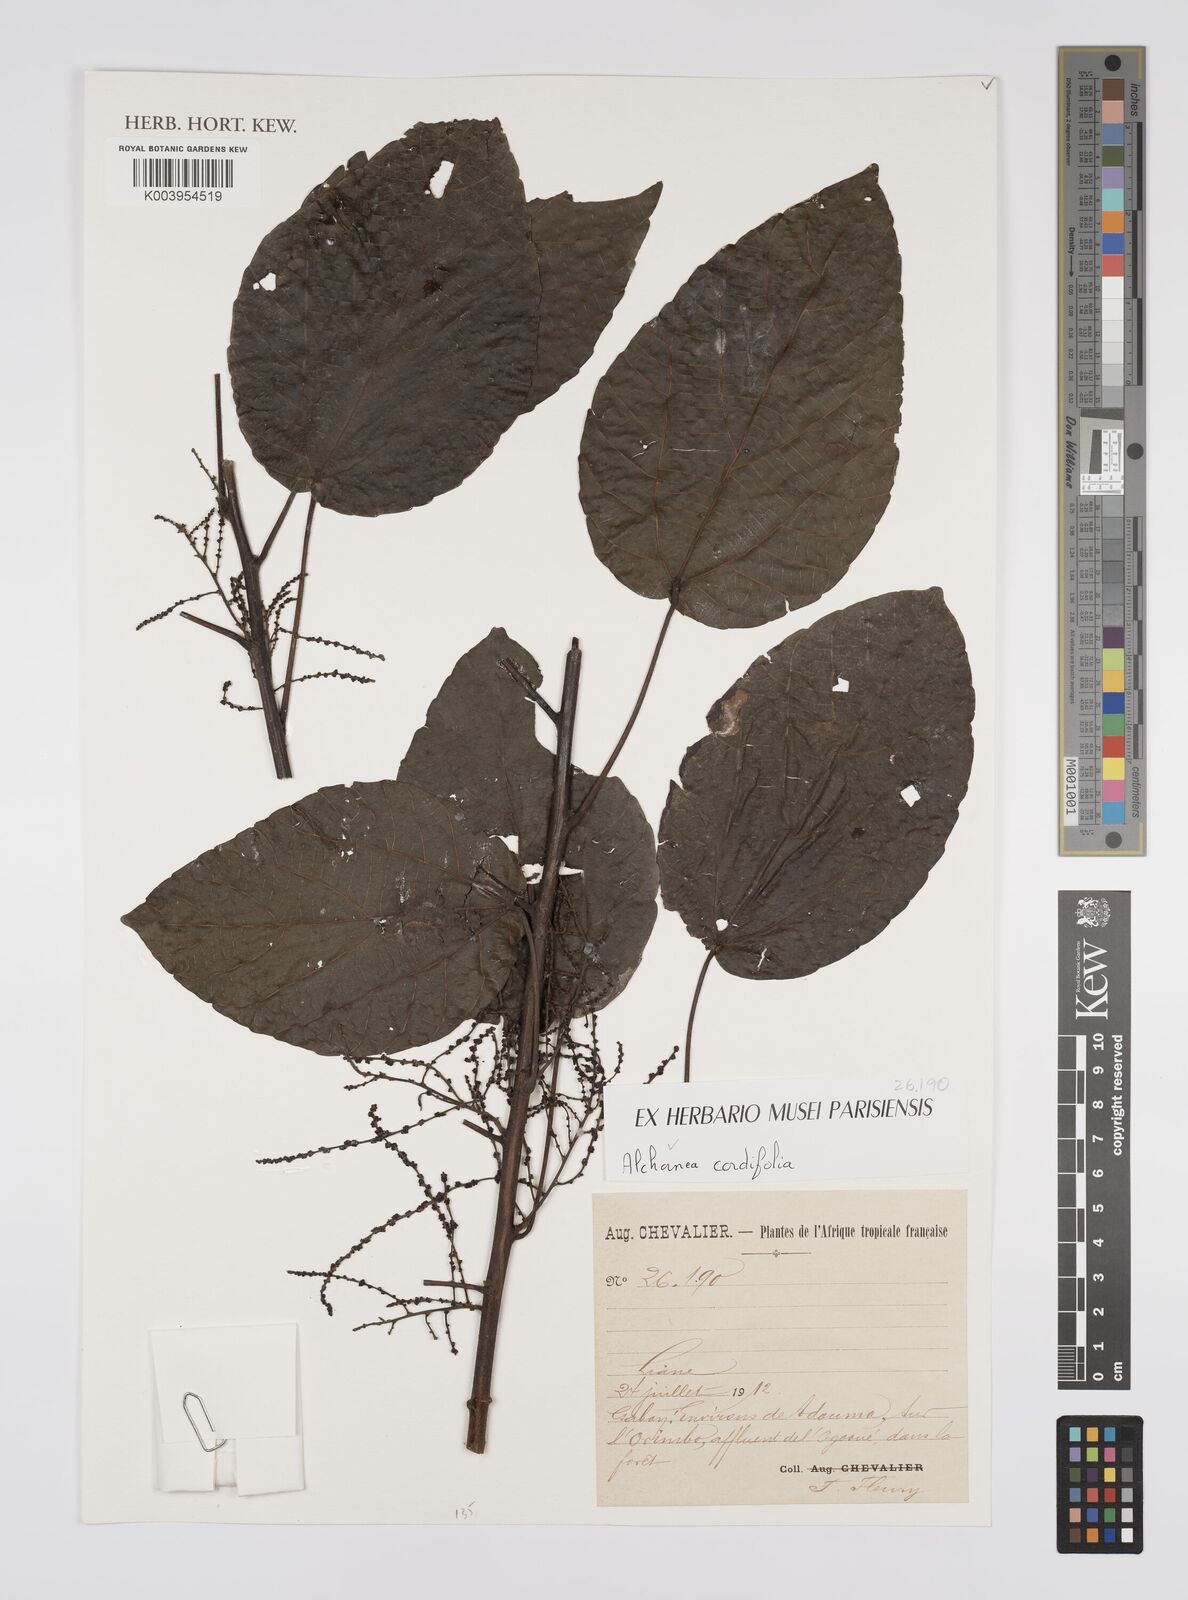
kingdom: Plantae
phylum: Tracheophyta
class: Magnoliopsida
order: Malpighiales
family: Euphorbiaceae
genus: Alchornea
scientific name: Alchornea cordifolia
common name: Christmasbush
